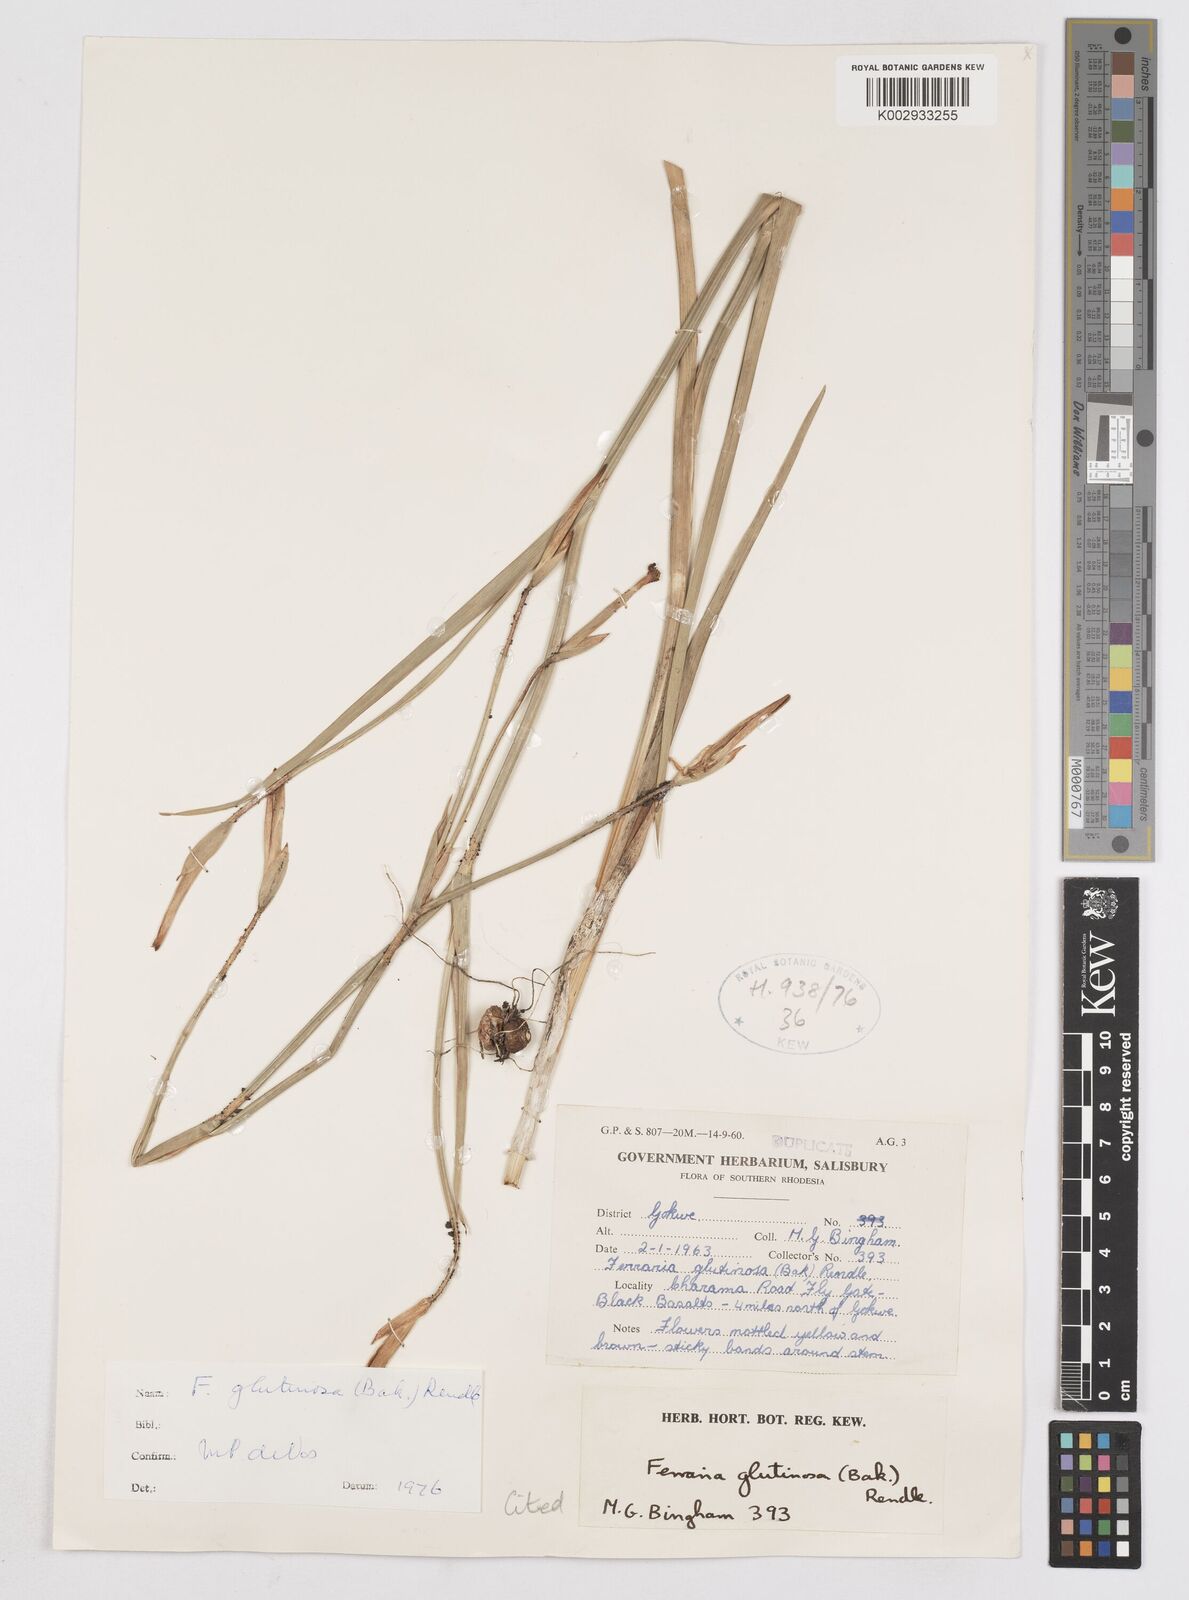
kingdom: Plantae
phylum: Tracheophyta
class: Liliopsida
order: Asparagales
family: Iridaceae
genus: Ferraria
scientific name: Ferraria glutinosa
